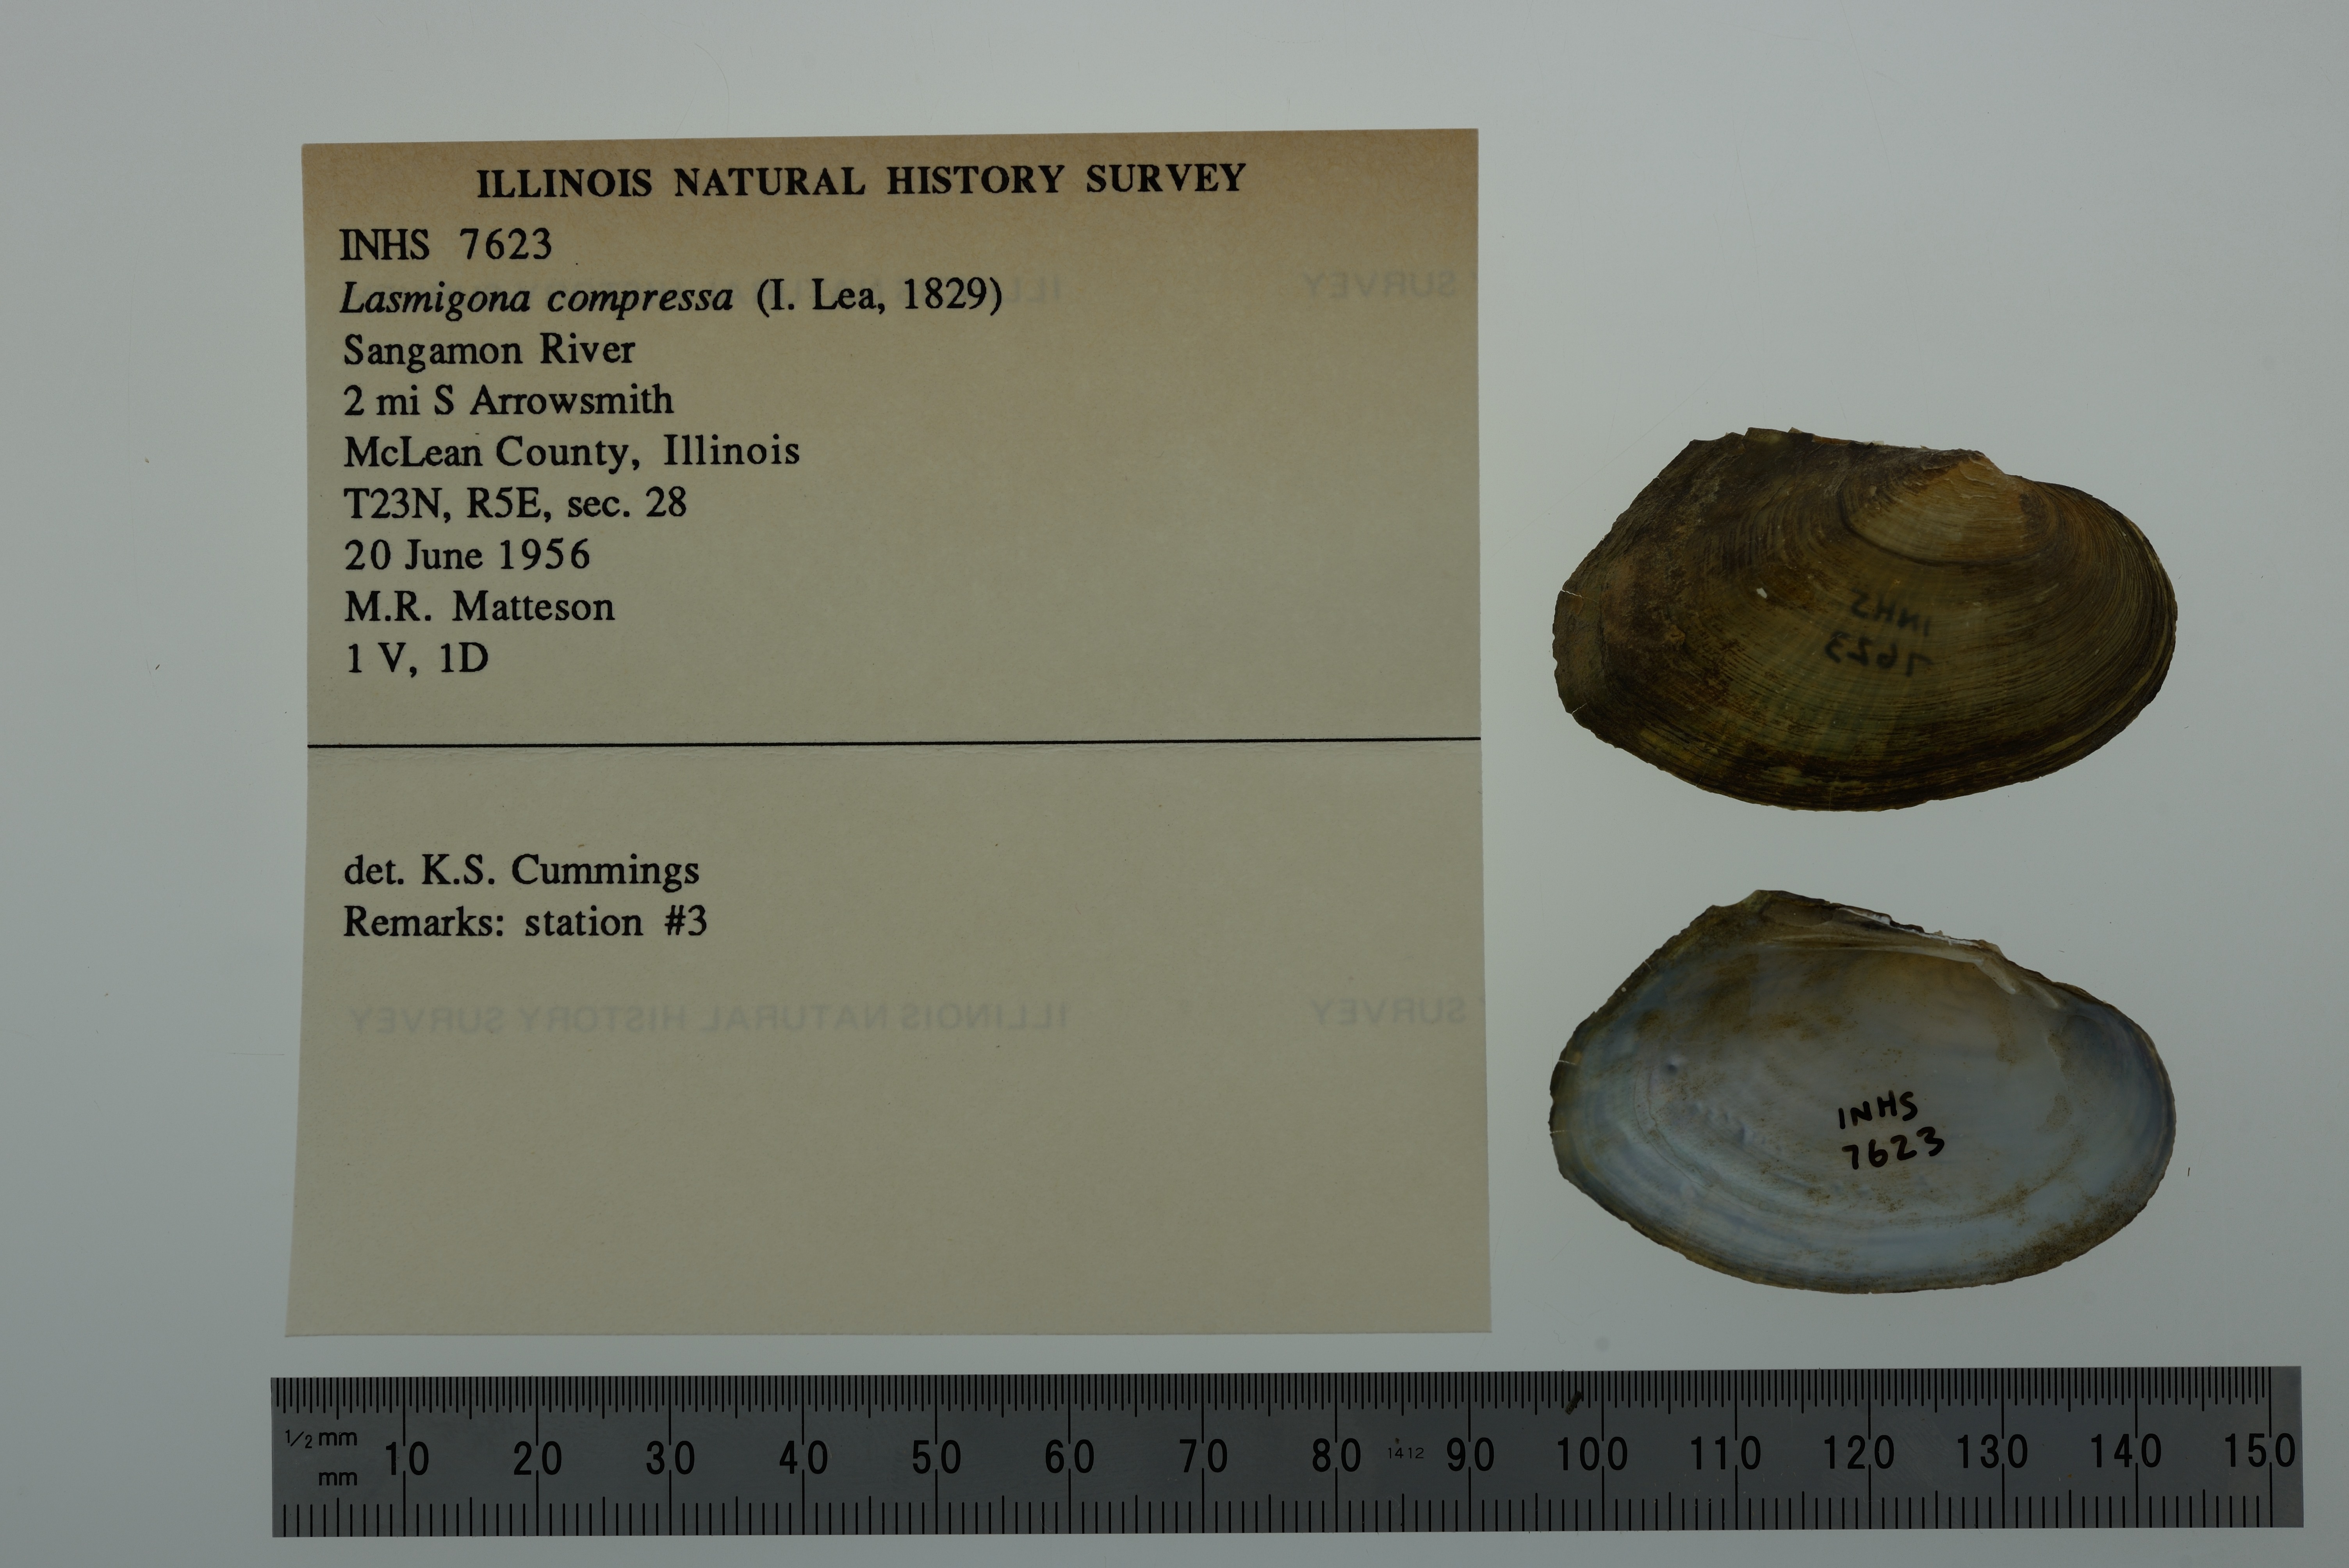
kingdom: Animalia
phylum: Mollusca
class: Bivalvia
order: Unionida
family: Unionidae
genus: Lasmigona
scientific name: Lasmigona compressa
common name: Creek heelsplitter
